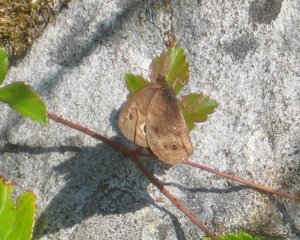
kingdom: Animalia
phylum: Arthropoda
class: Insecta
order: Lepidoptera
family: Nymphalidae
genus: Cercyonis
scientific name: Cercyonis pegala
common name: Common Wood-Nymph
